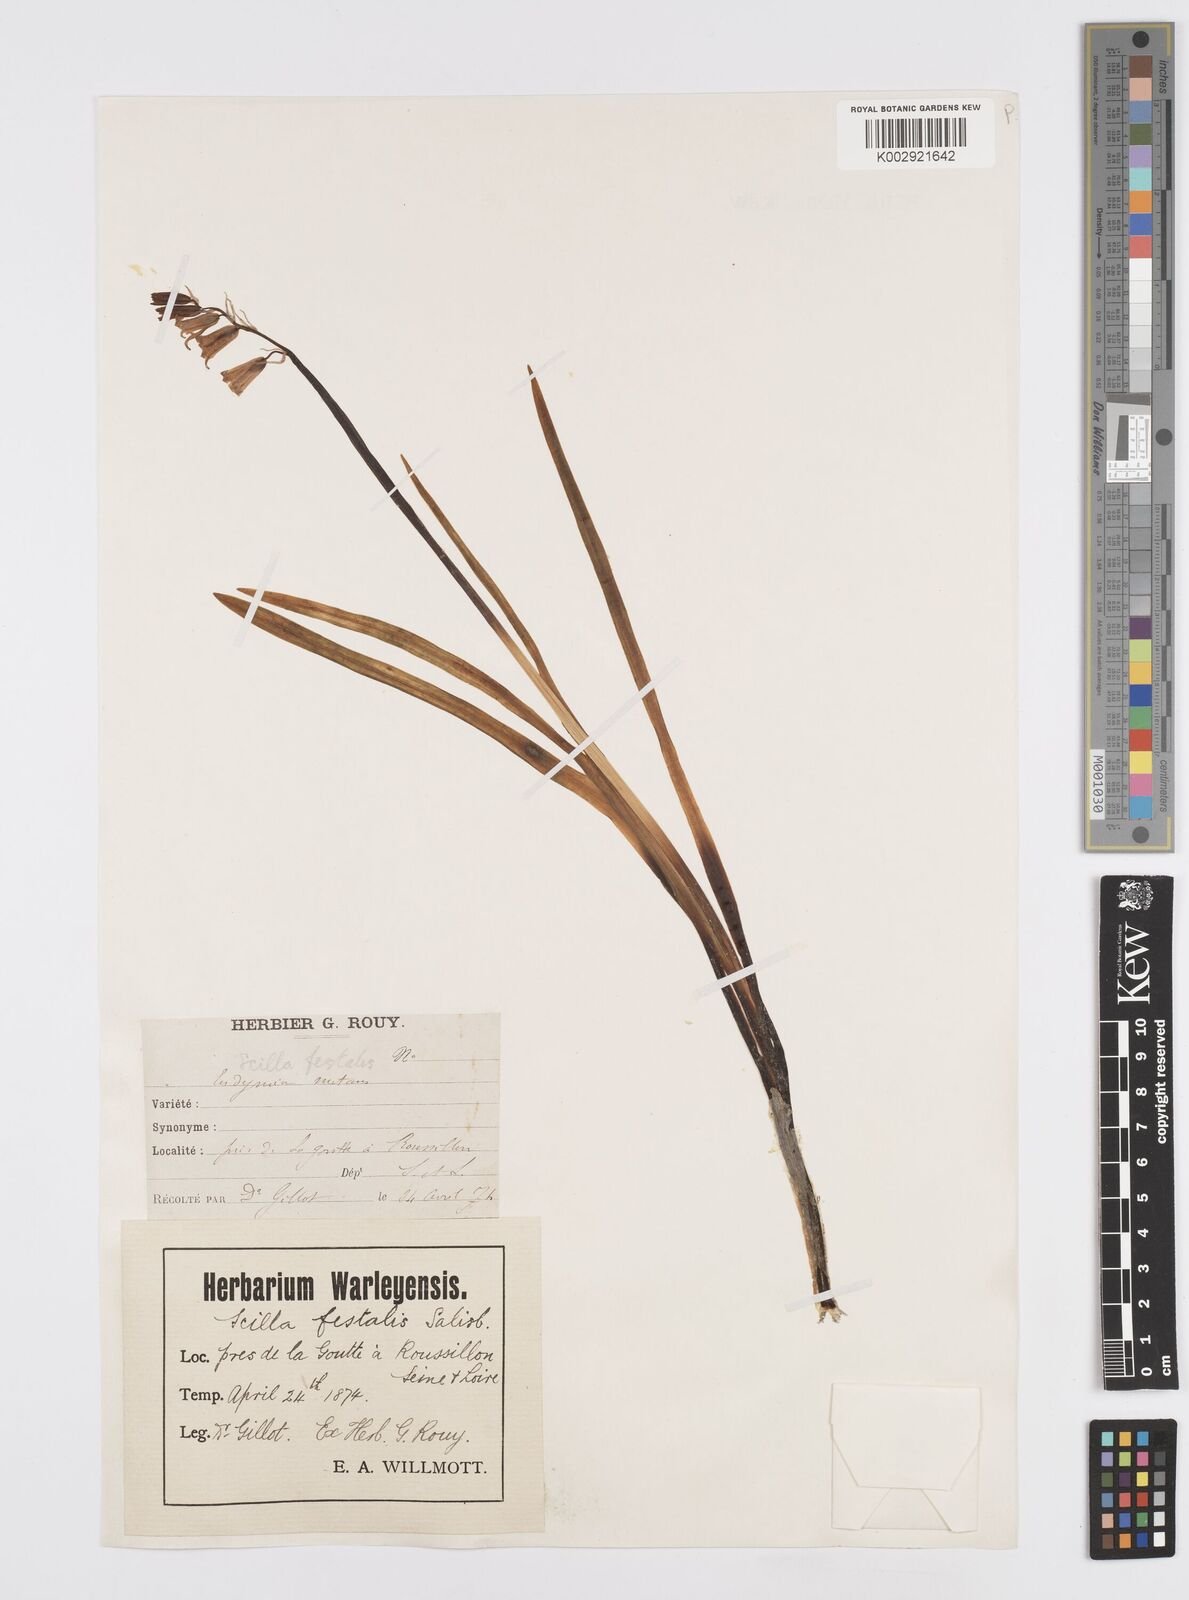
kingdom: Plantae
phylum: Tracheophyta
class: Liliopsida
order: Asparagales
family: Asparagaceae
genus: Hyacinthoides
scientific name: Hyacinthoides non-scripta
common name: Bluebell
